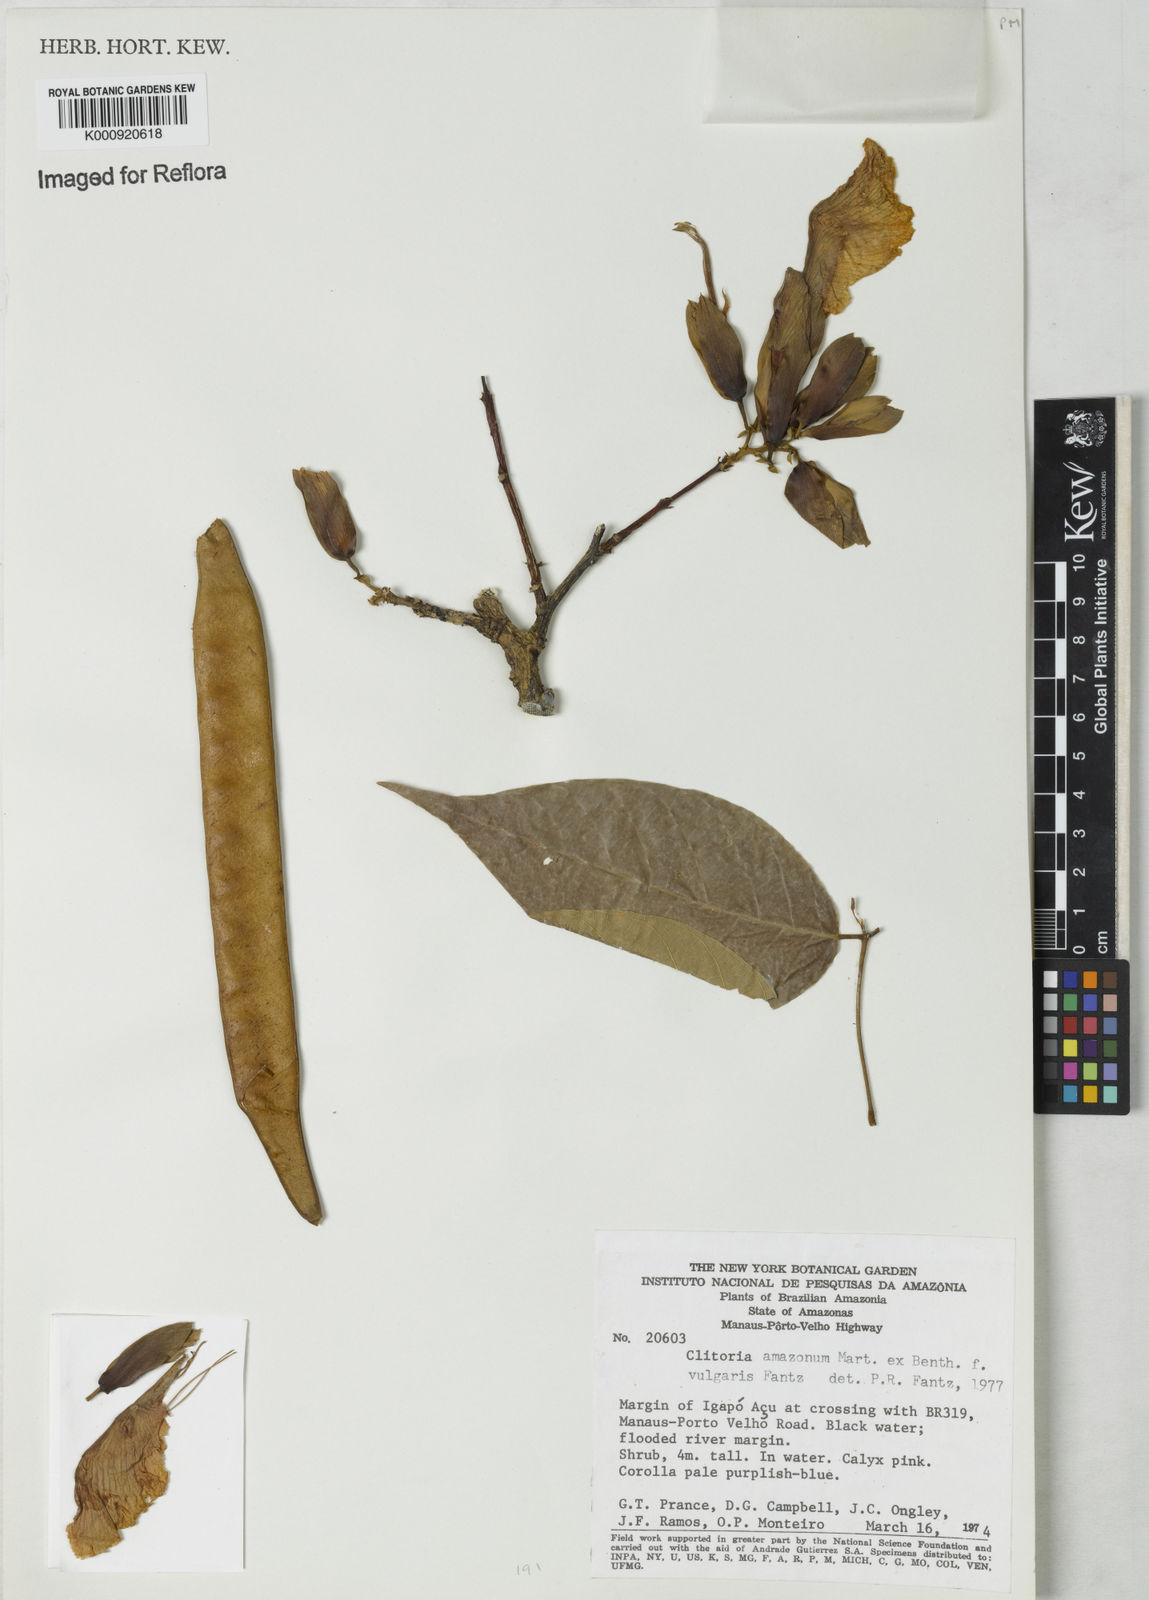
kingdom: Plantae
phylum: Tracheophyta
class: Magnoliopsida
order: Fabales
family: Fabaceae
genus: Clitoria
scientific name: Clitoria amazonum
